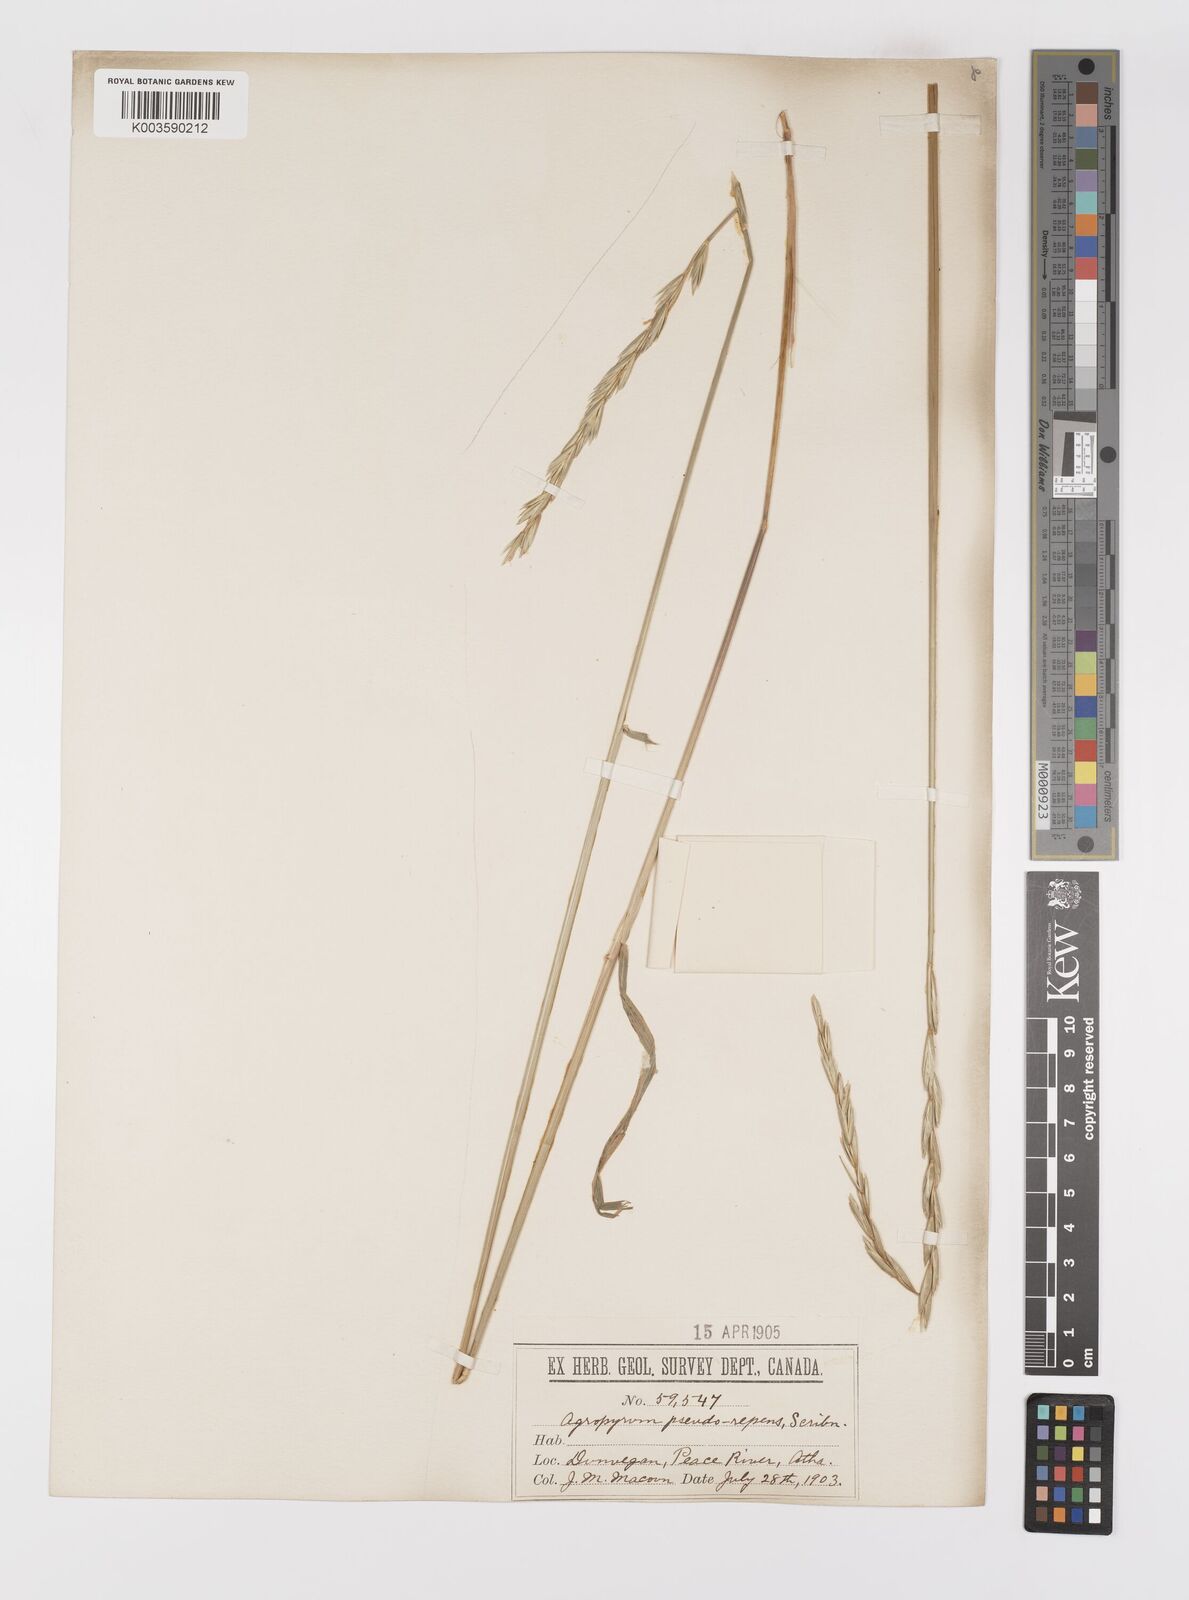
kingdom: Plantae
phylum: Tracheophyta
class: Liliopsida
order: Poales
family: Poaceae
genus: Elymus
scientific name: Elymus violaceus
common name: Arctic wheatgrass
